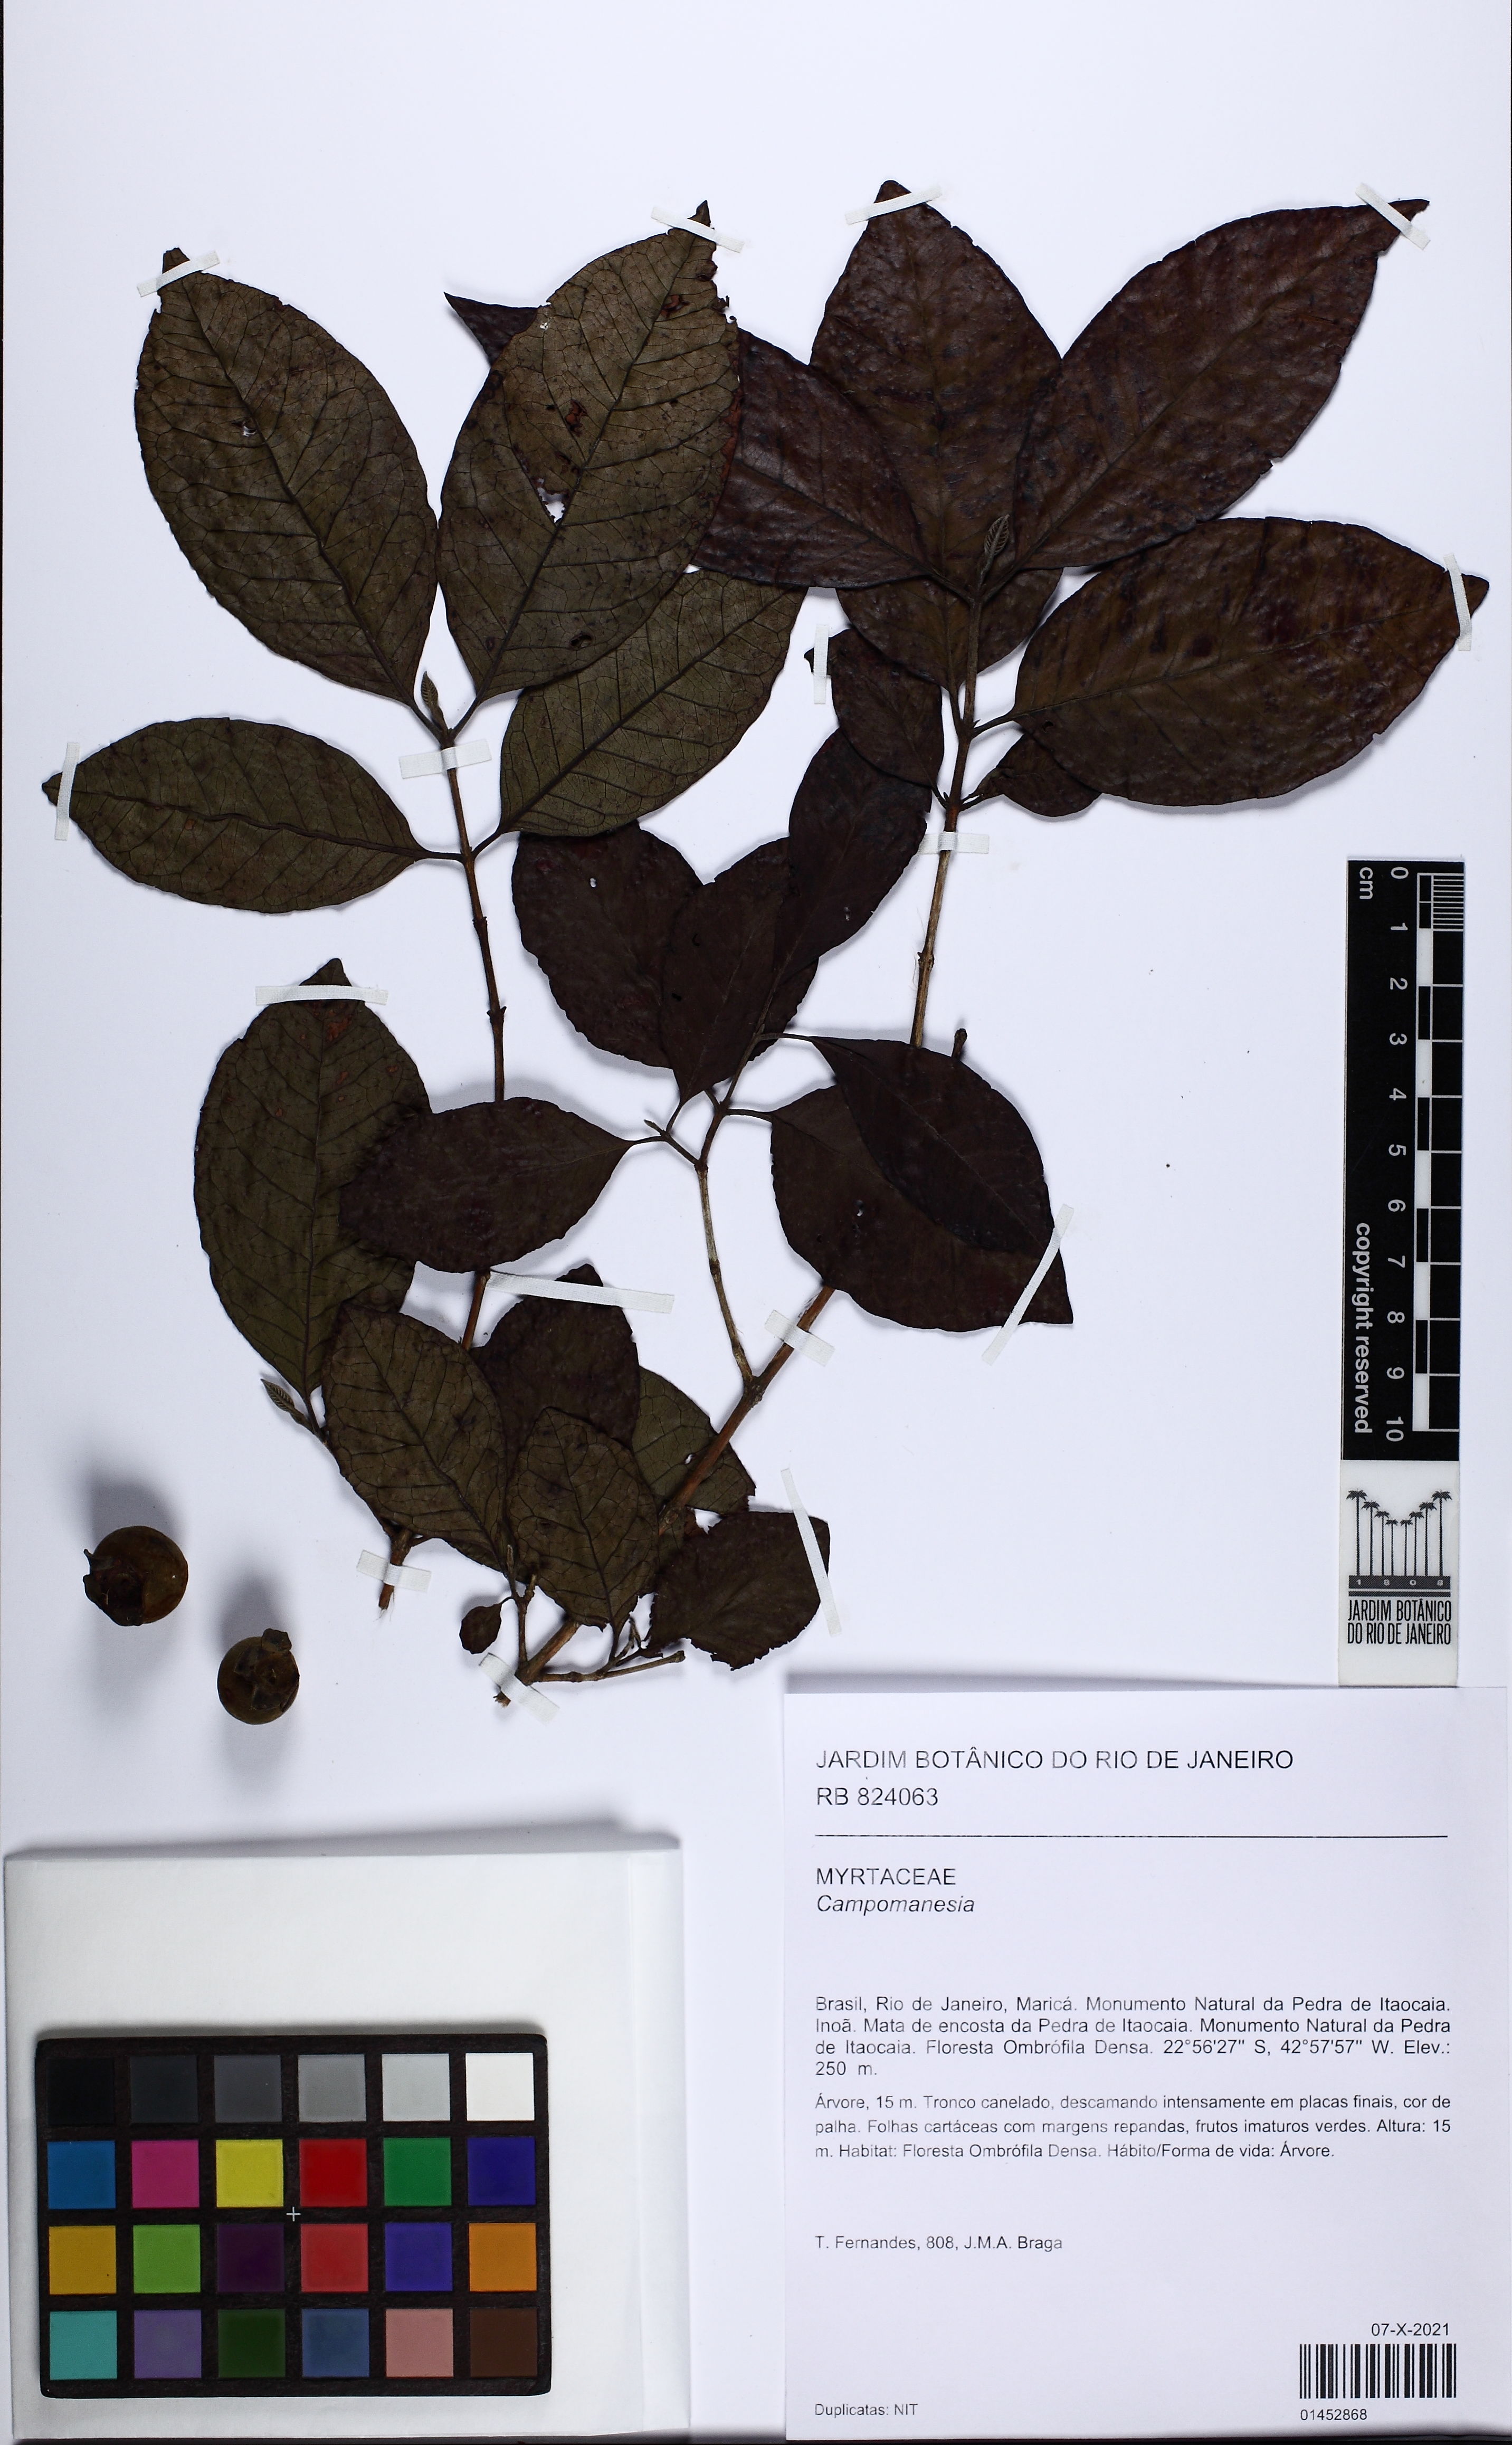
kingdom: Plantae
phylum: Tracheophyta
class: Magnoliopsida
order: Myrtales
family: Myrtaceae
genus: Campomanesia
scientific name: Campomanesia schlechtendaliana
